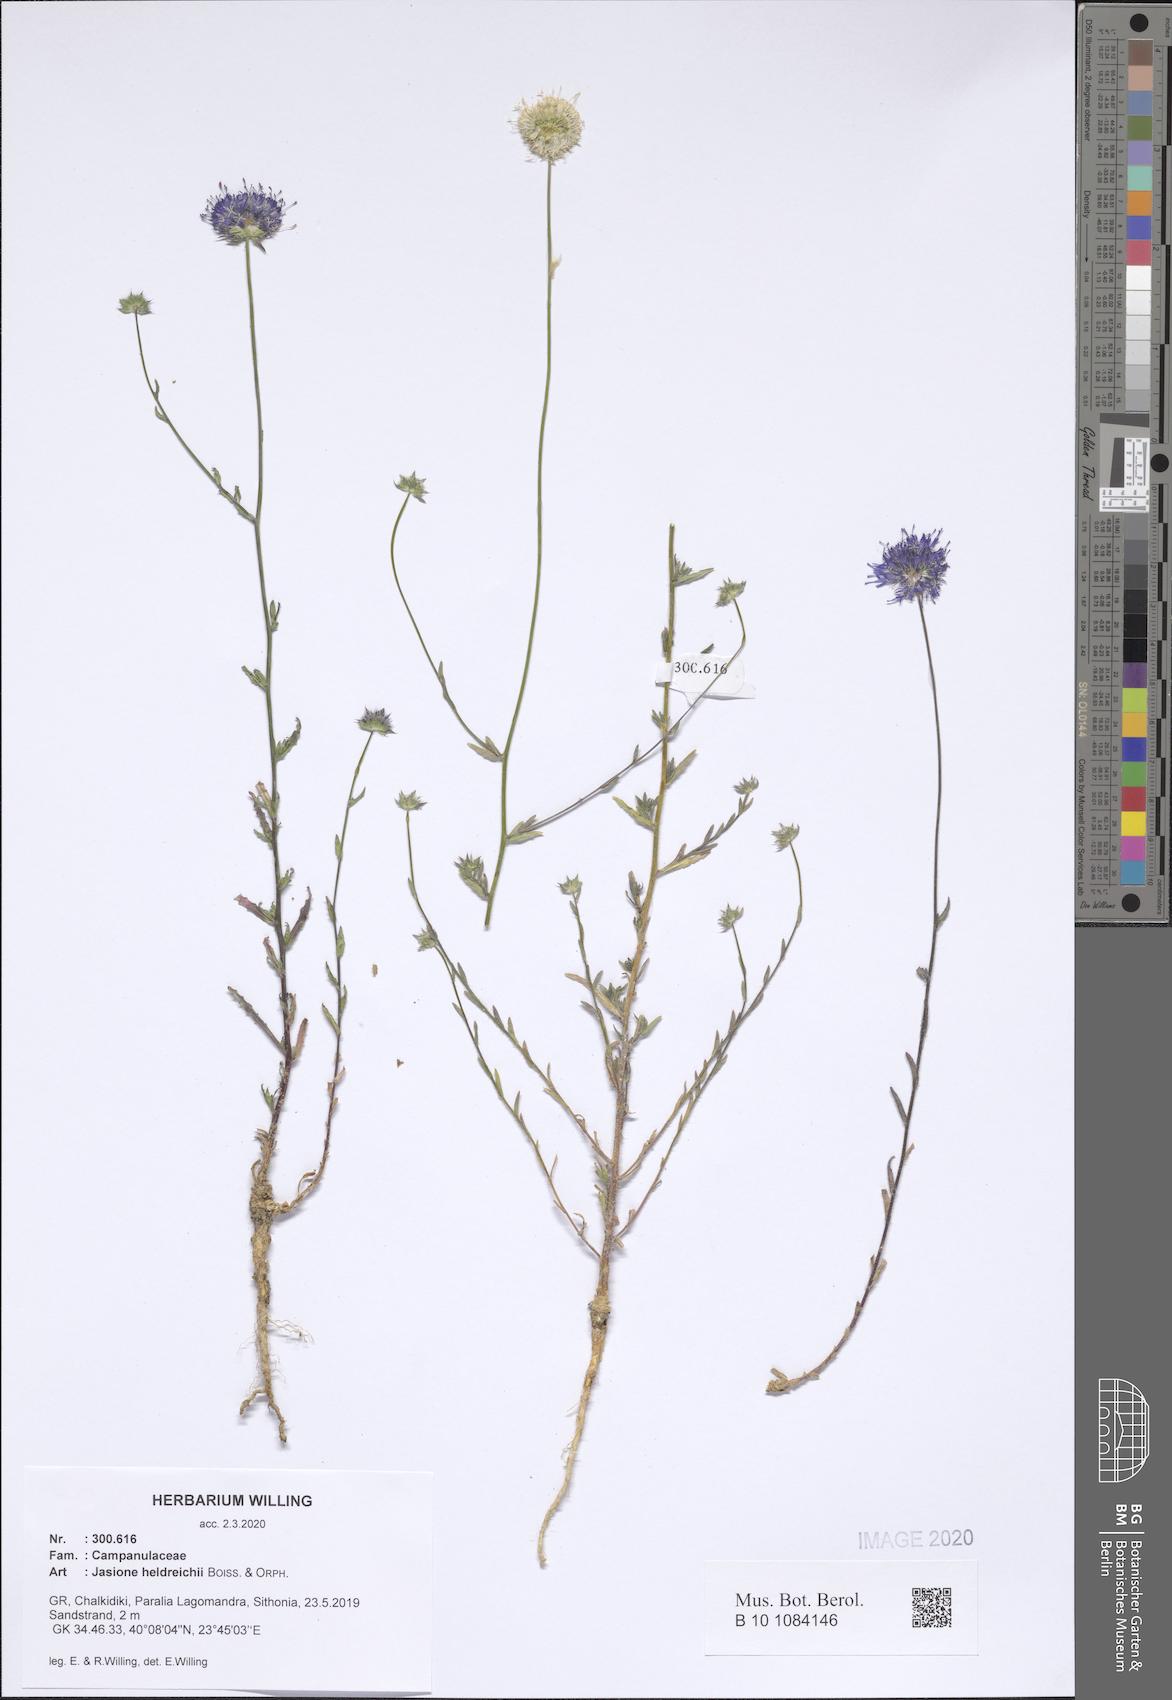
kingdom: Plantae
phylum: Tracheophyta
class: Magnoliopsida
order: Asterales
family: Campanulaceae
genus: Jasione
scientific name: Jasione heldreichii
